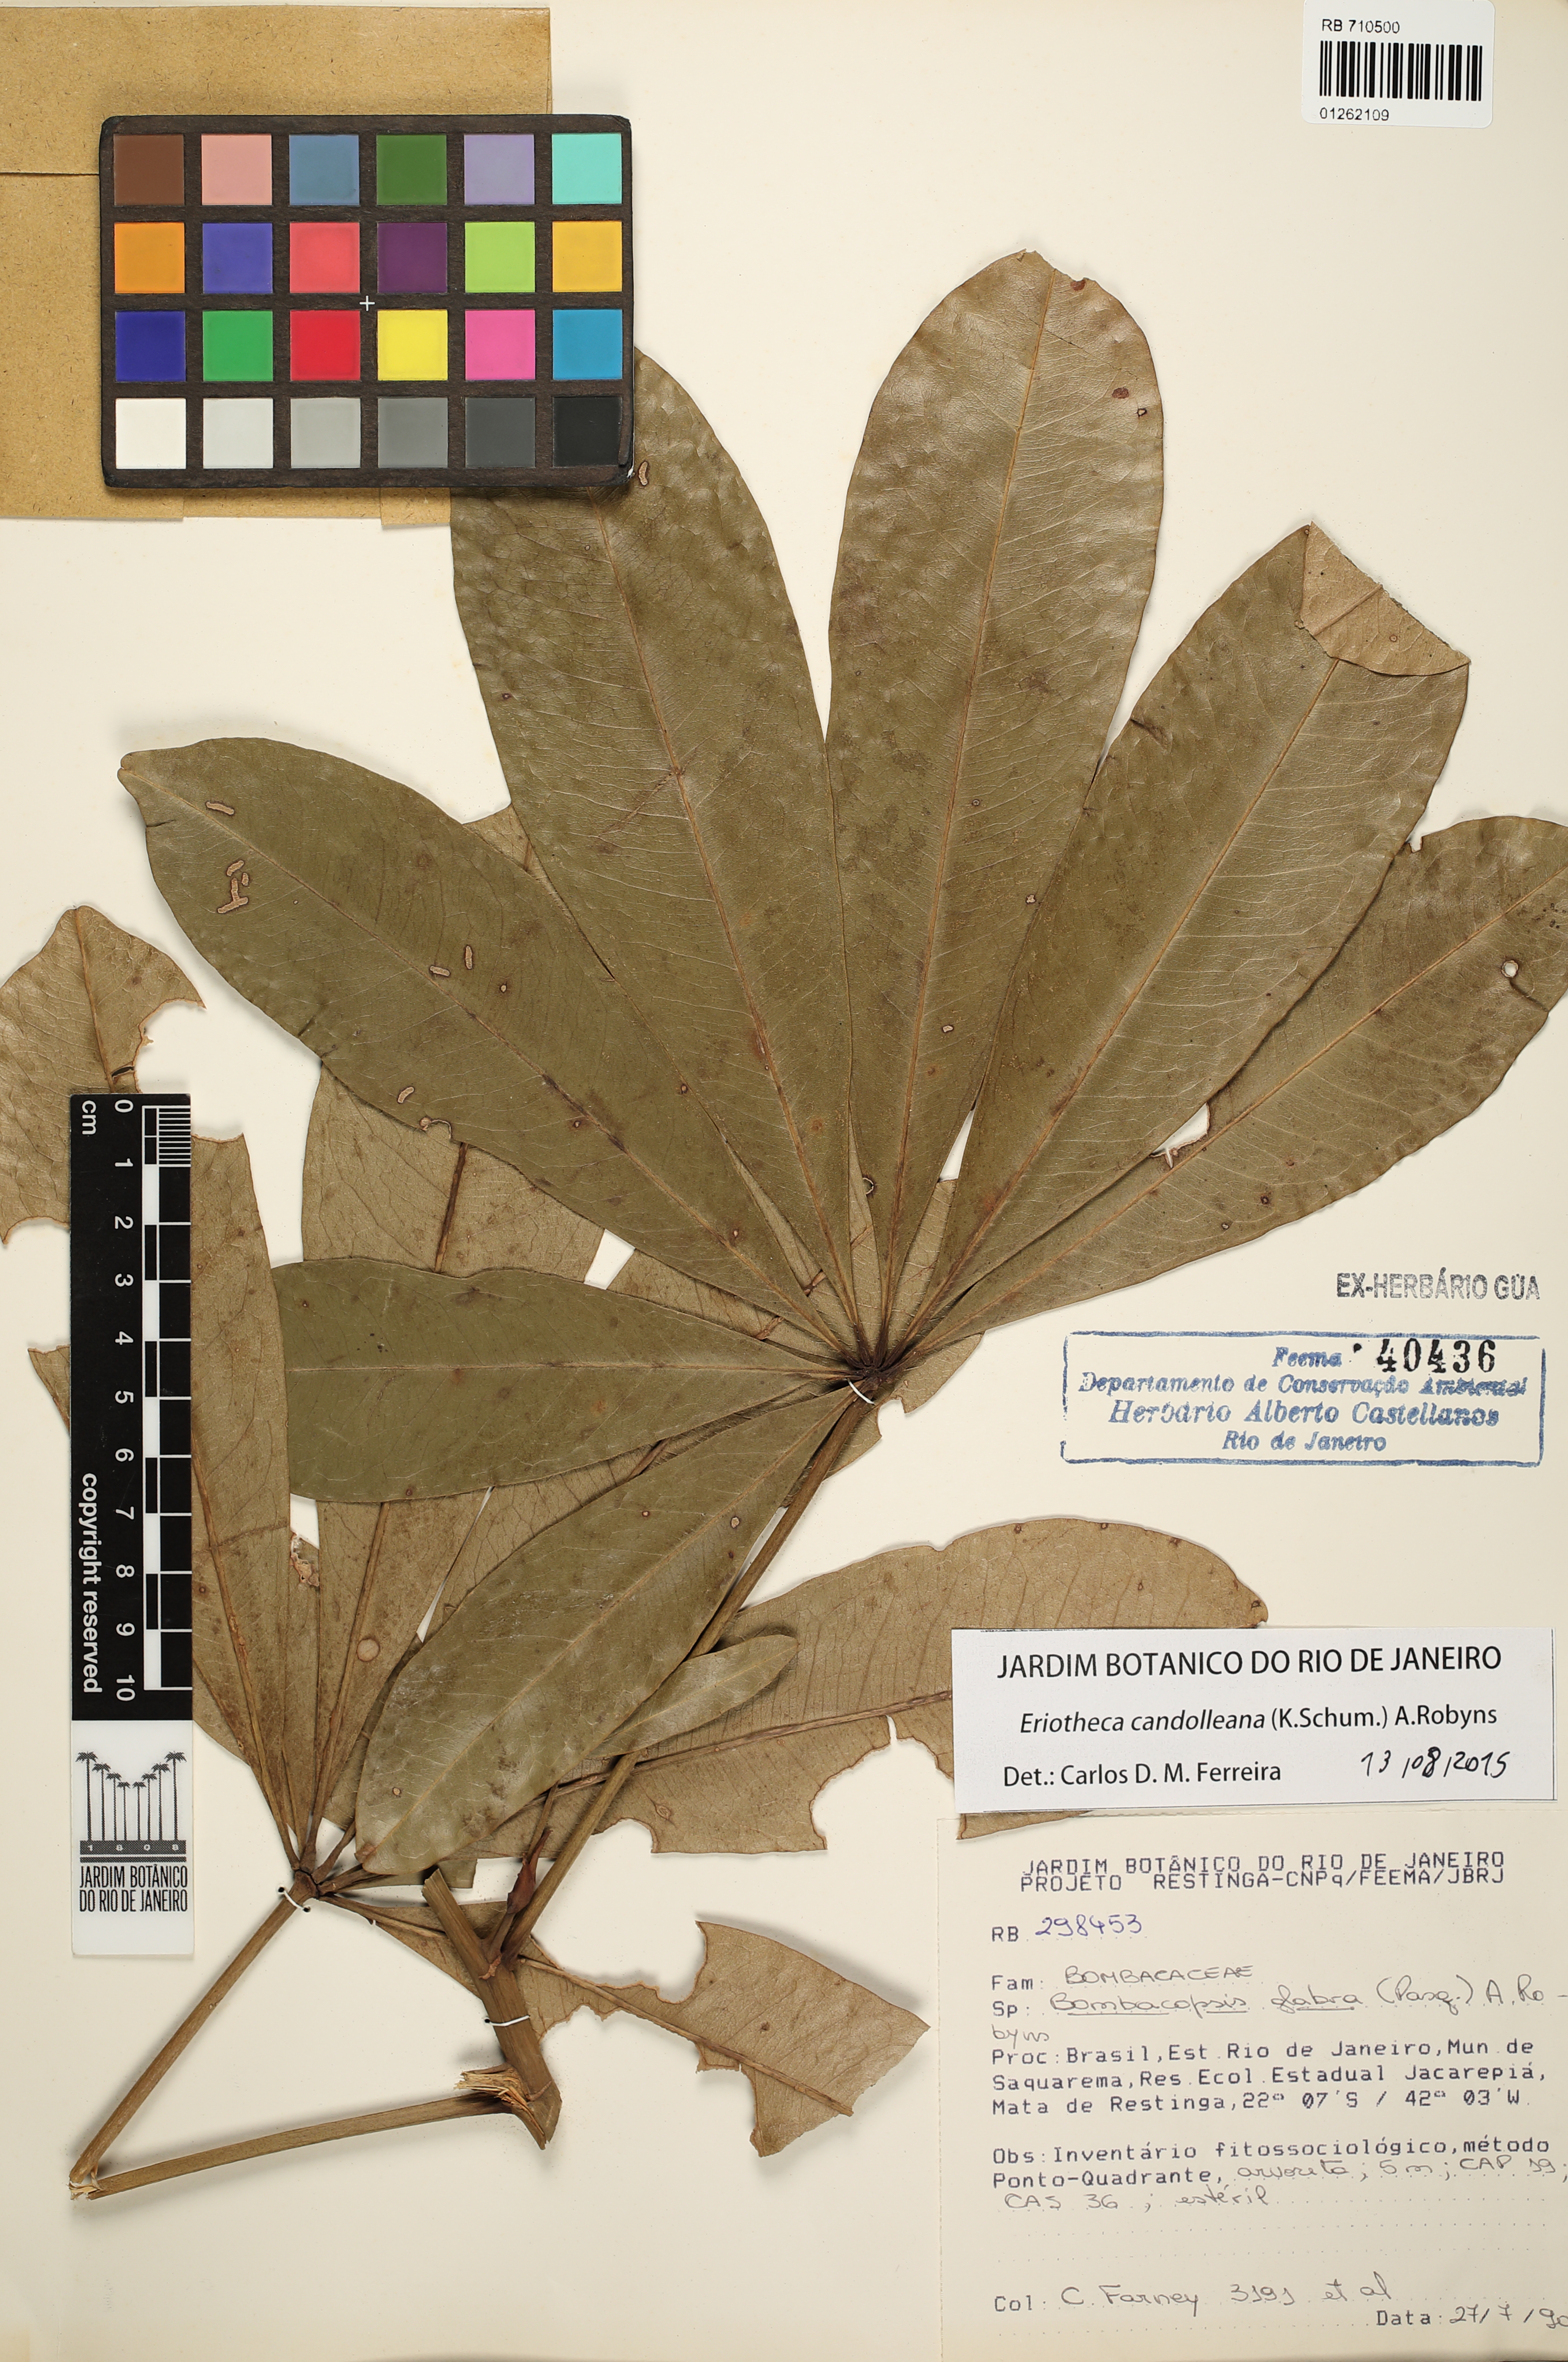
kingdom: Plantae
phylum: Tracheophyta
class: Magnoliopsida
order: Malvales
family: Malvaceae
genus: Eriotheca
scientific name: Eriotheca candolleana
